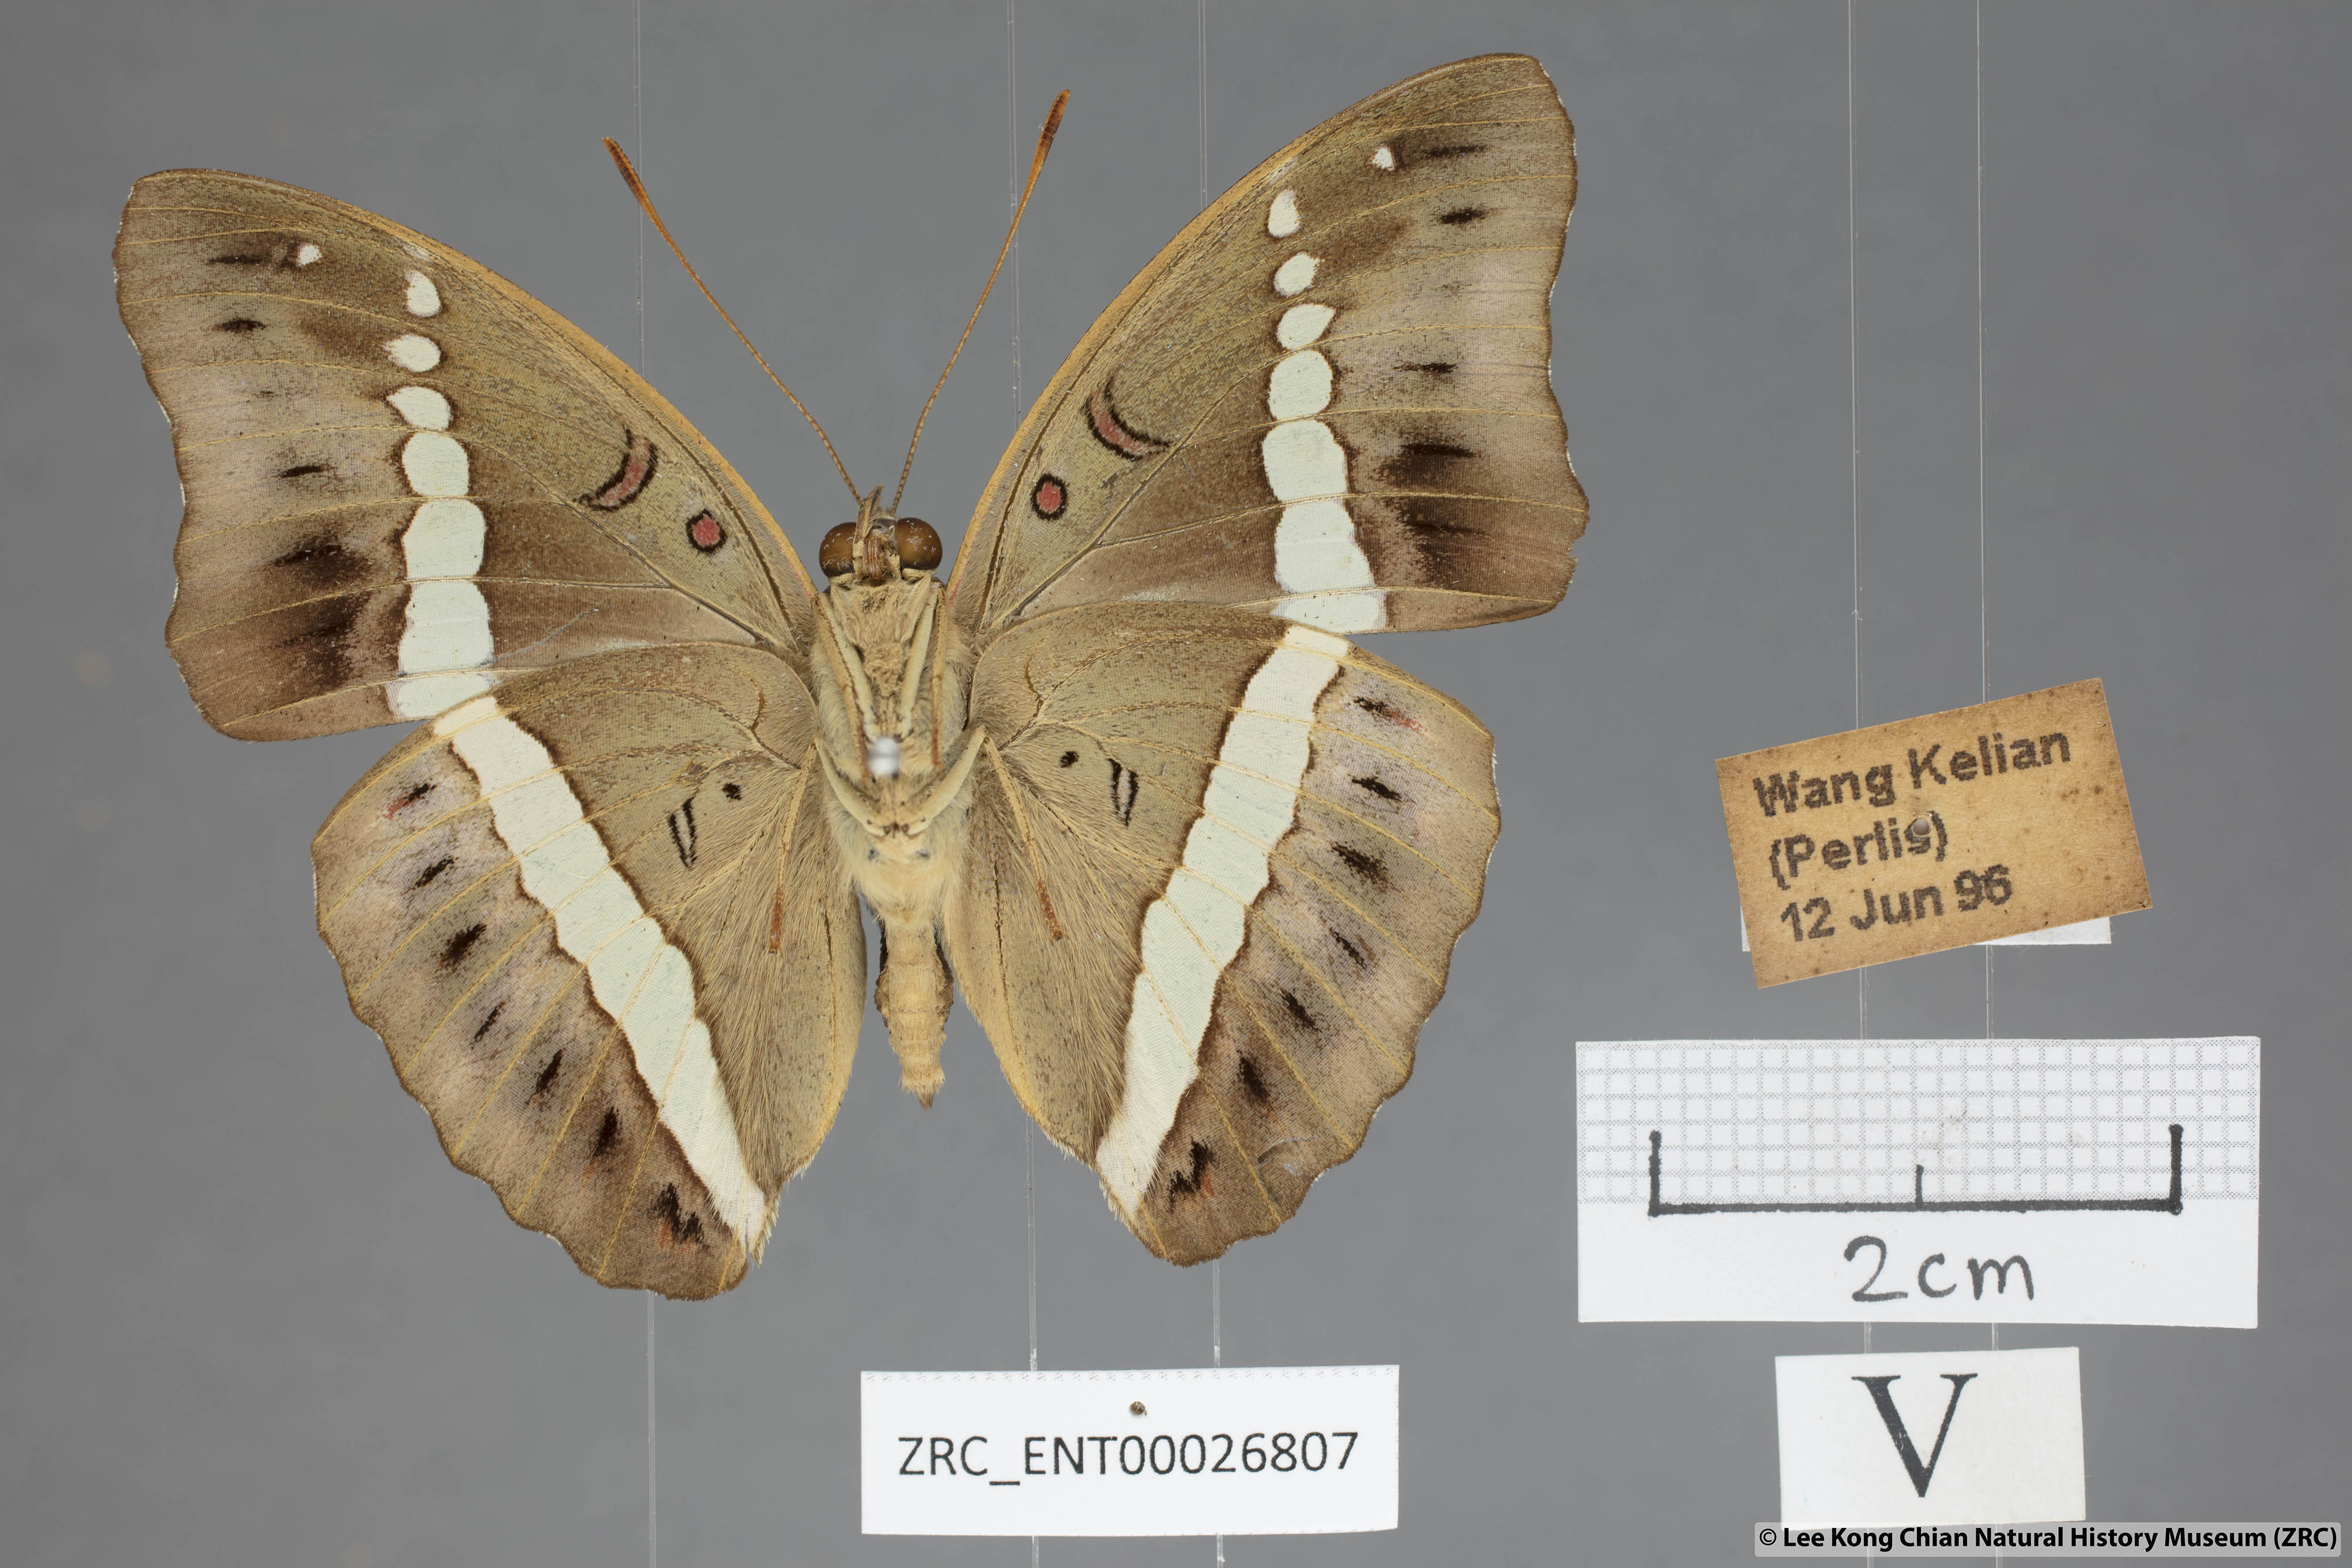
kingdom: Animalia
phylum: Arthropoda
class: Insecta
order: Lepidoptera
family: Nymphalidae
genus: Euthalia
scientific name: Euthalia Bassarona recta
